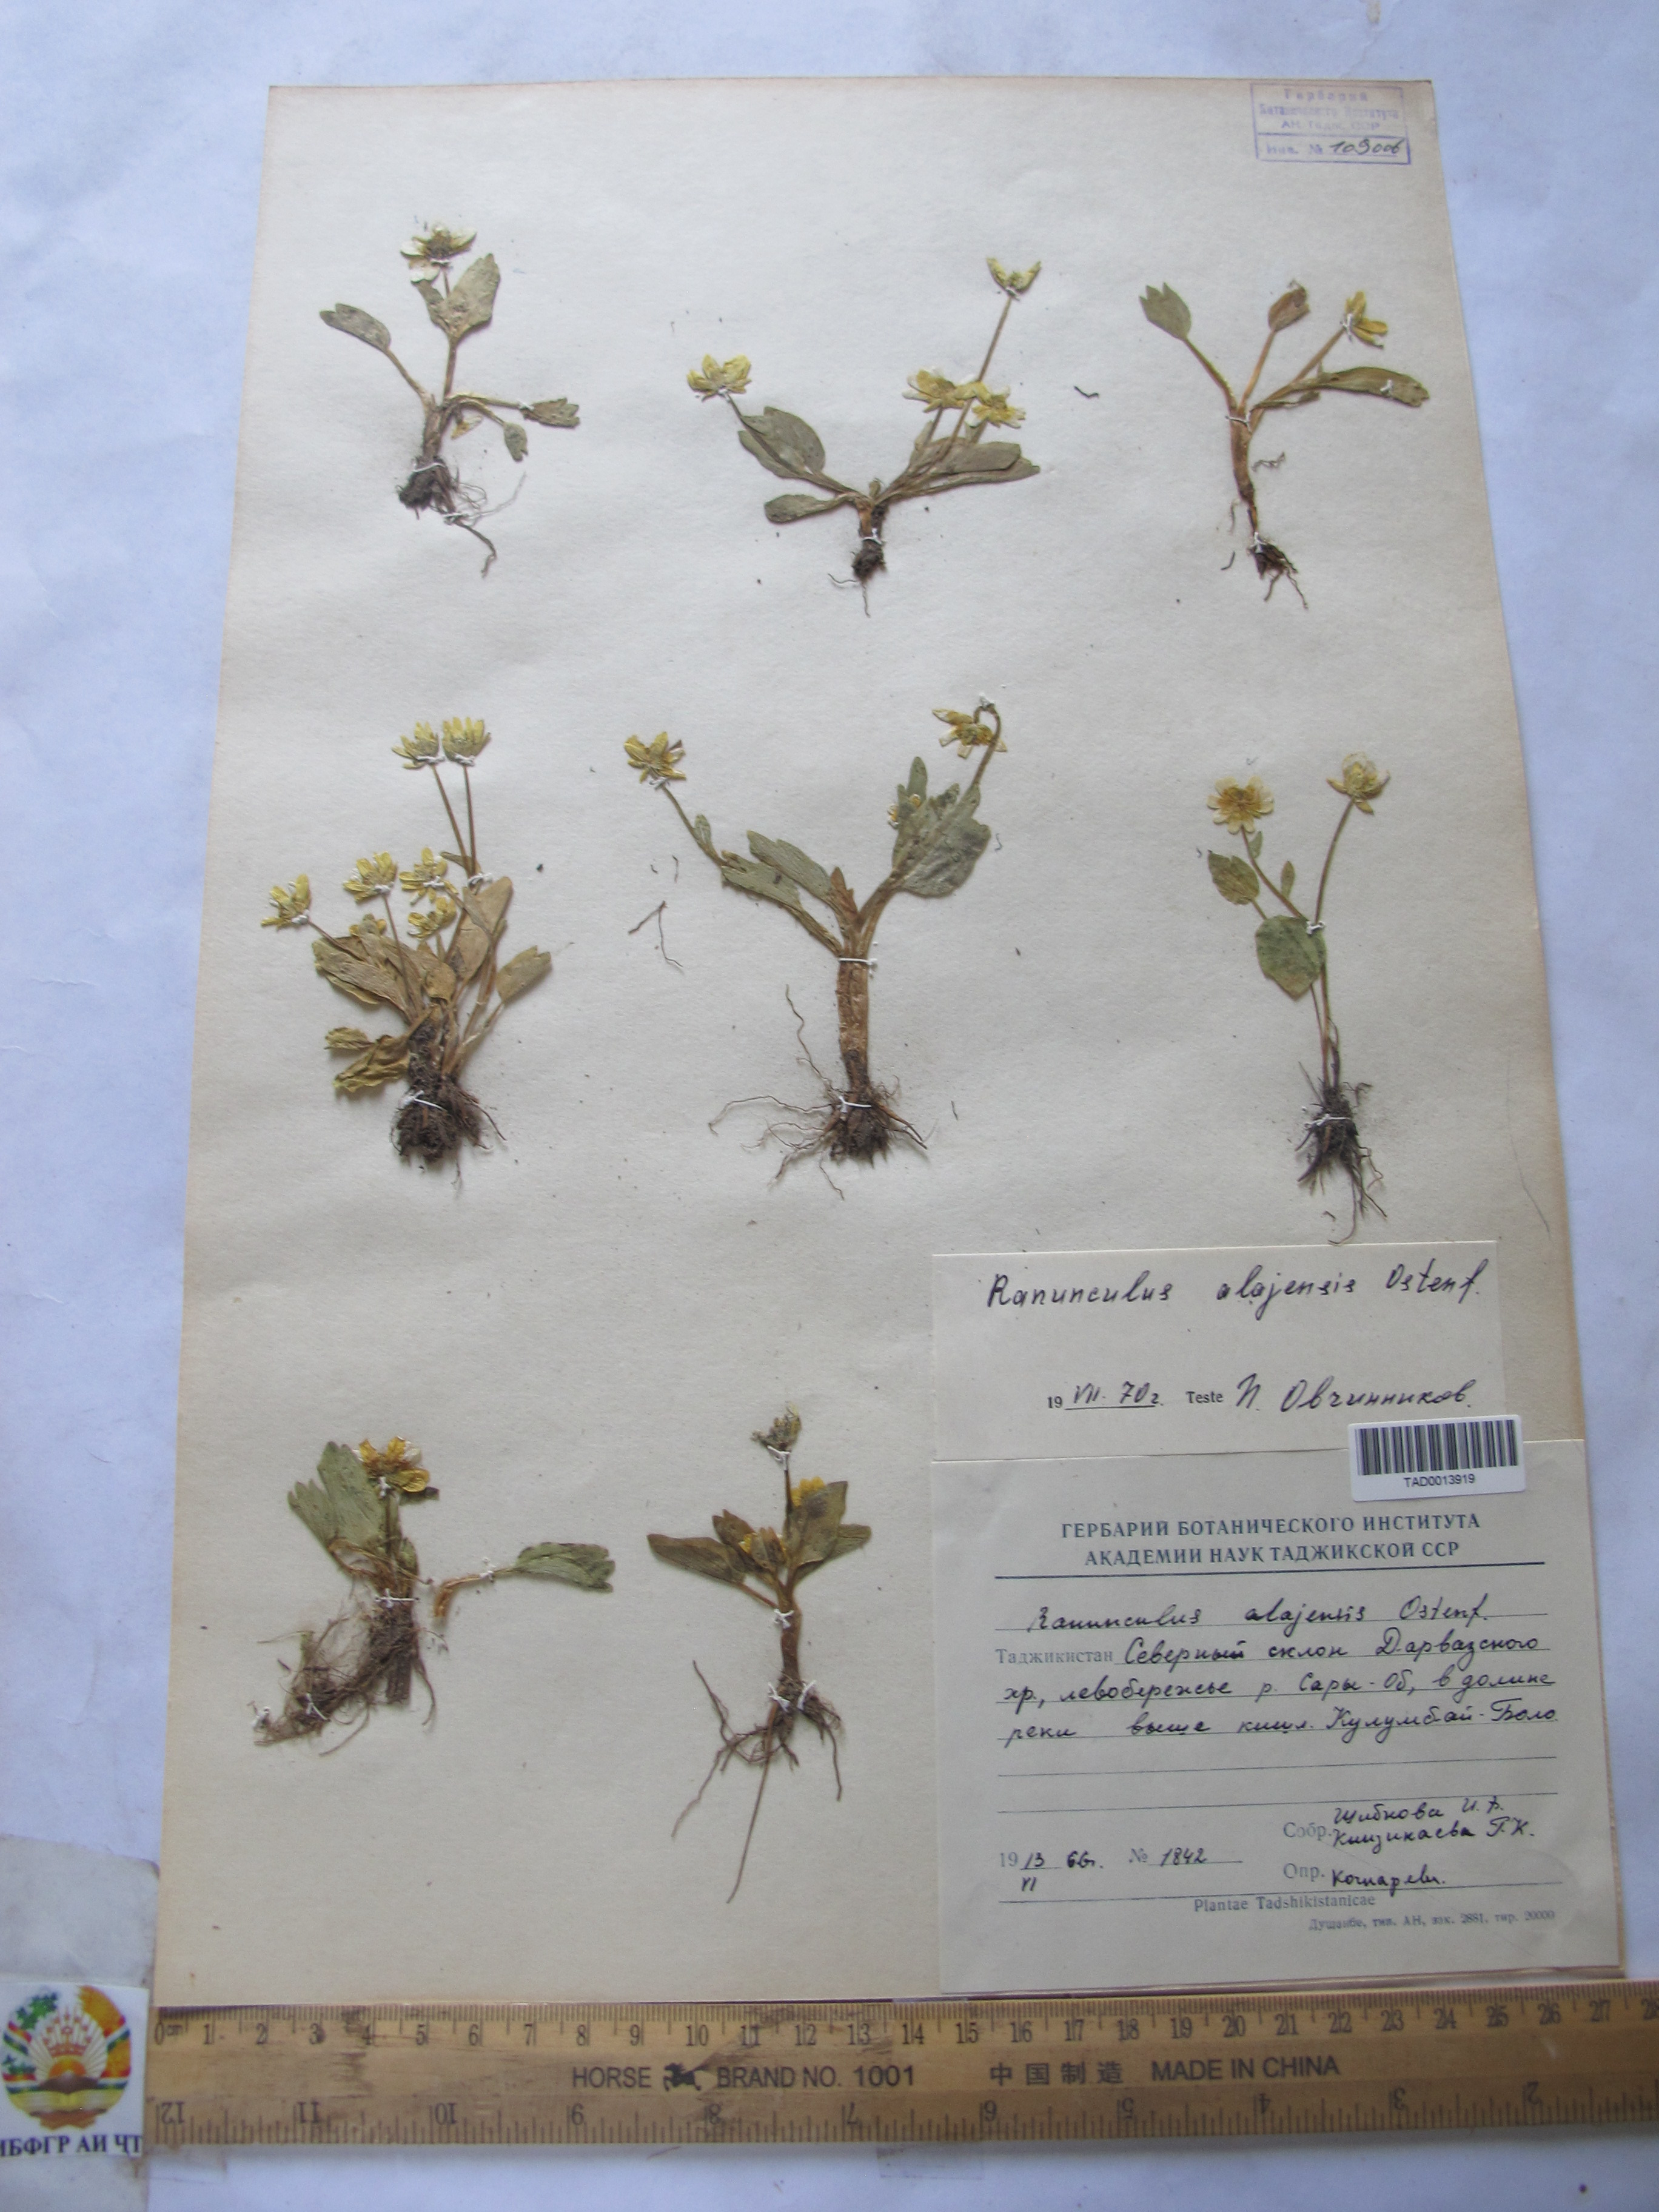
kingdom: Plantae
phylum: Tracheophyta
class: Magnoliopsida
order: Ranunculales
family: Ranunculaceae
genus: Ranunculus
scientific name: Ranunculus alaiensis
